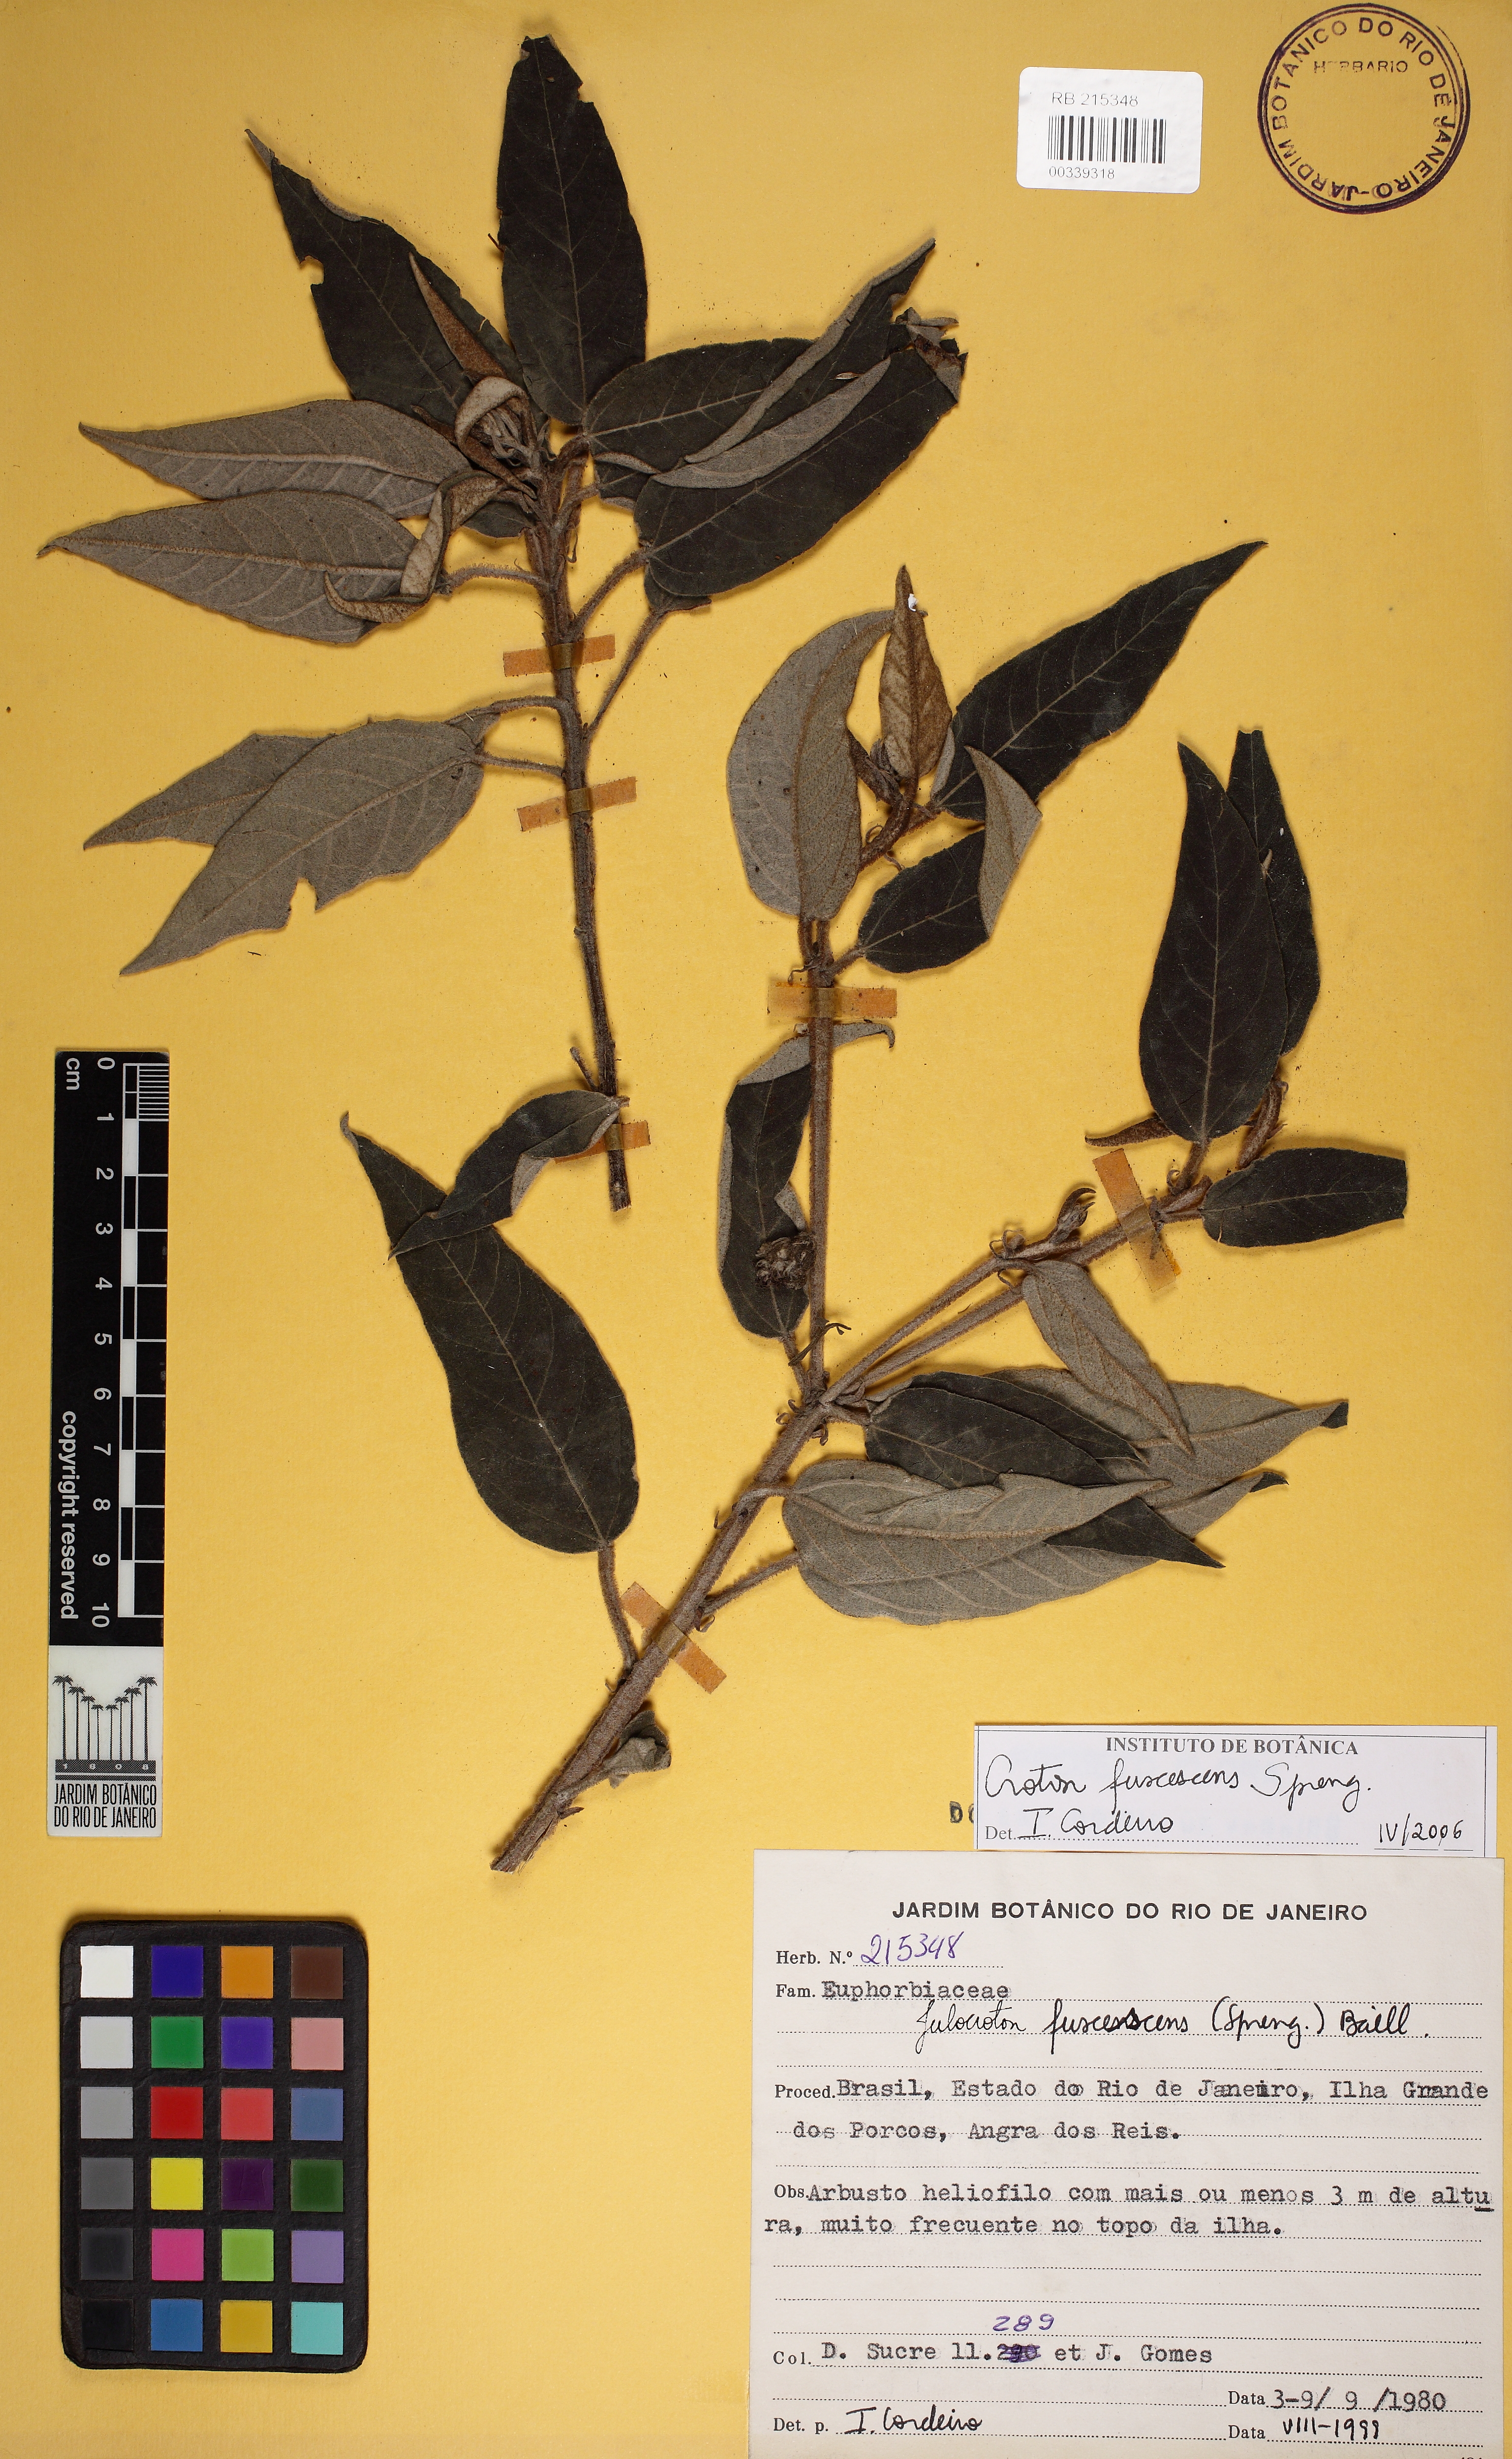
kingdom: Plantae
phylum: Tracheophyta
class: Magnoliopsida
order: Malpighiales
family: Euphorbiaceae
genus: Croton
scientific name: Croton gnaphaloides
